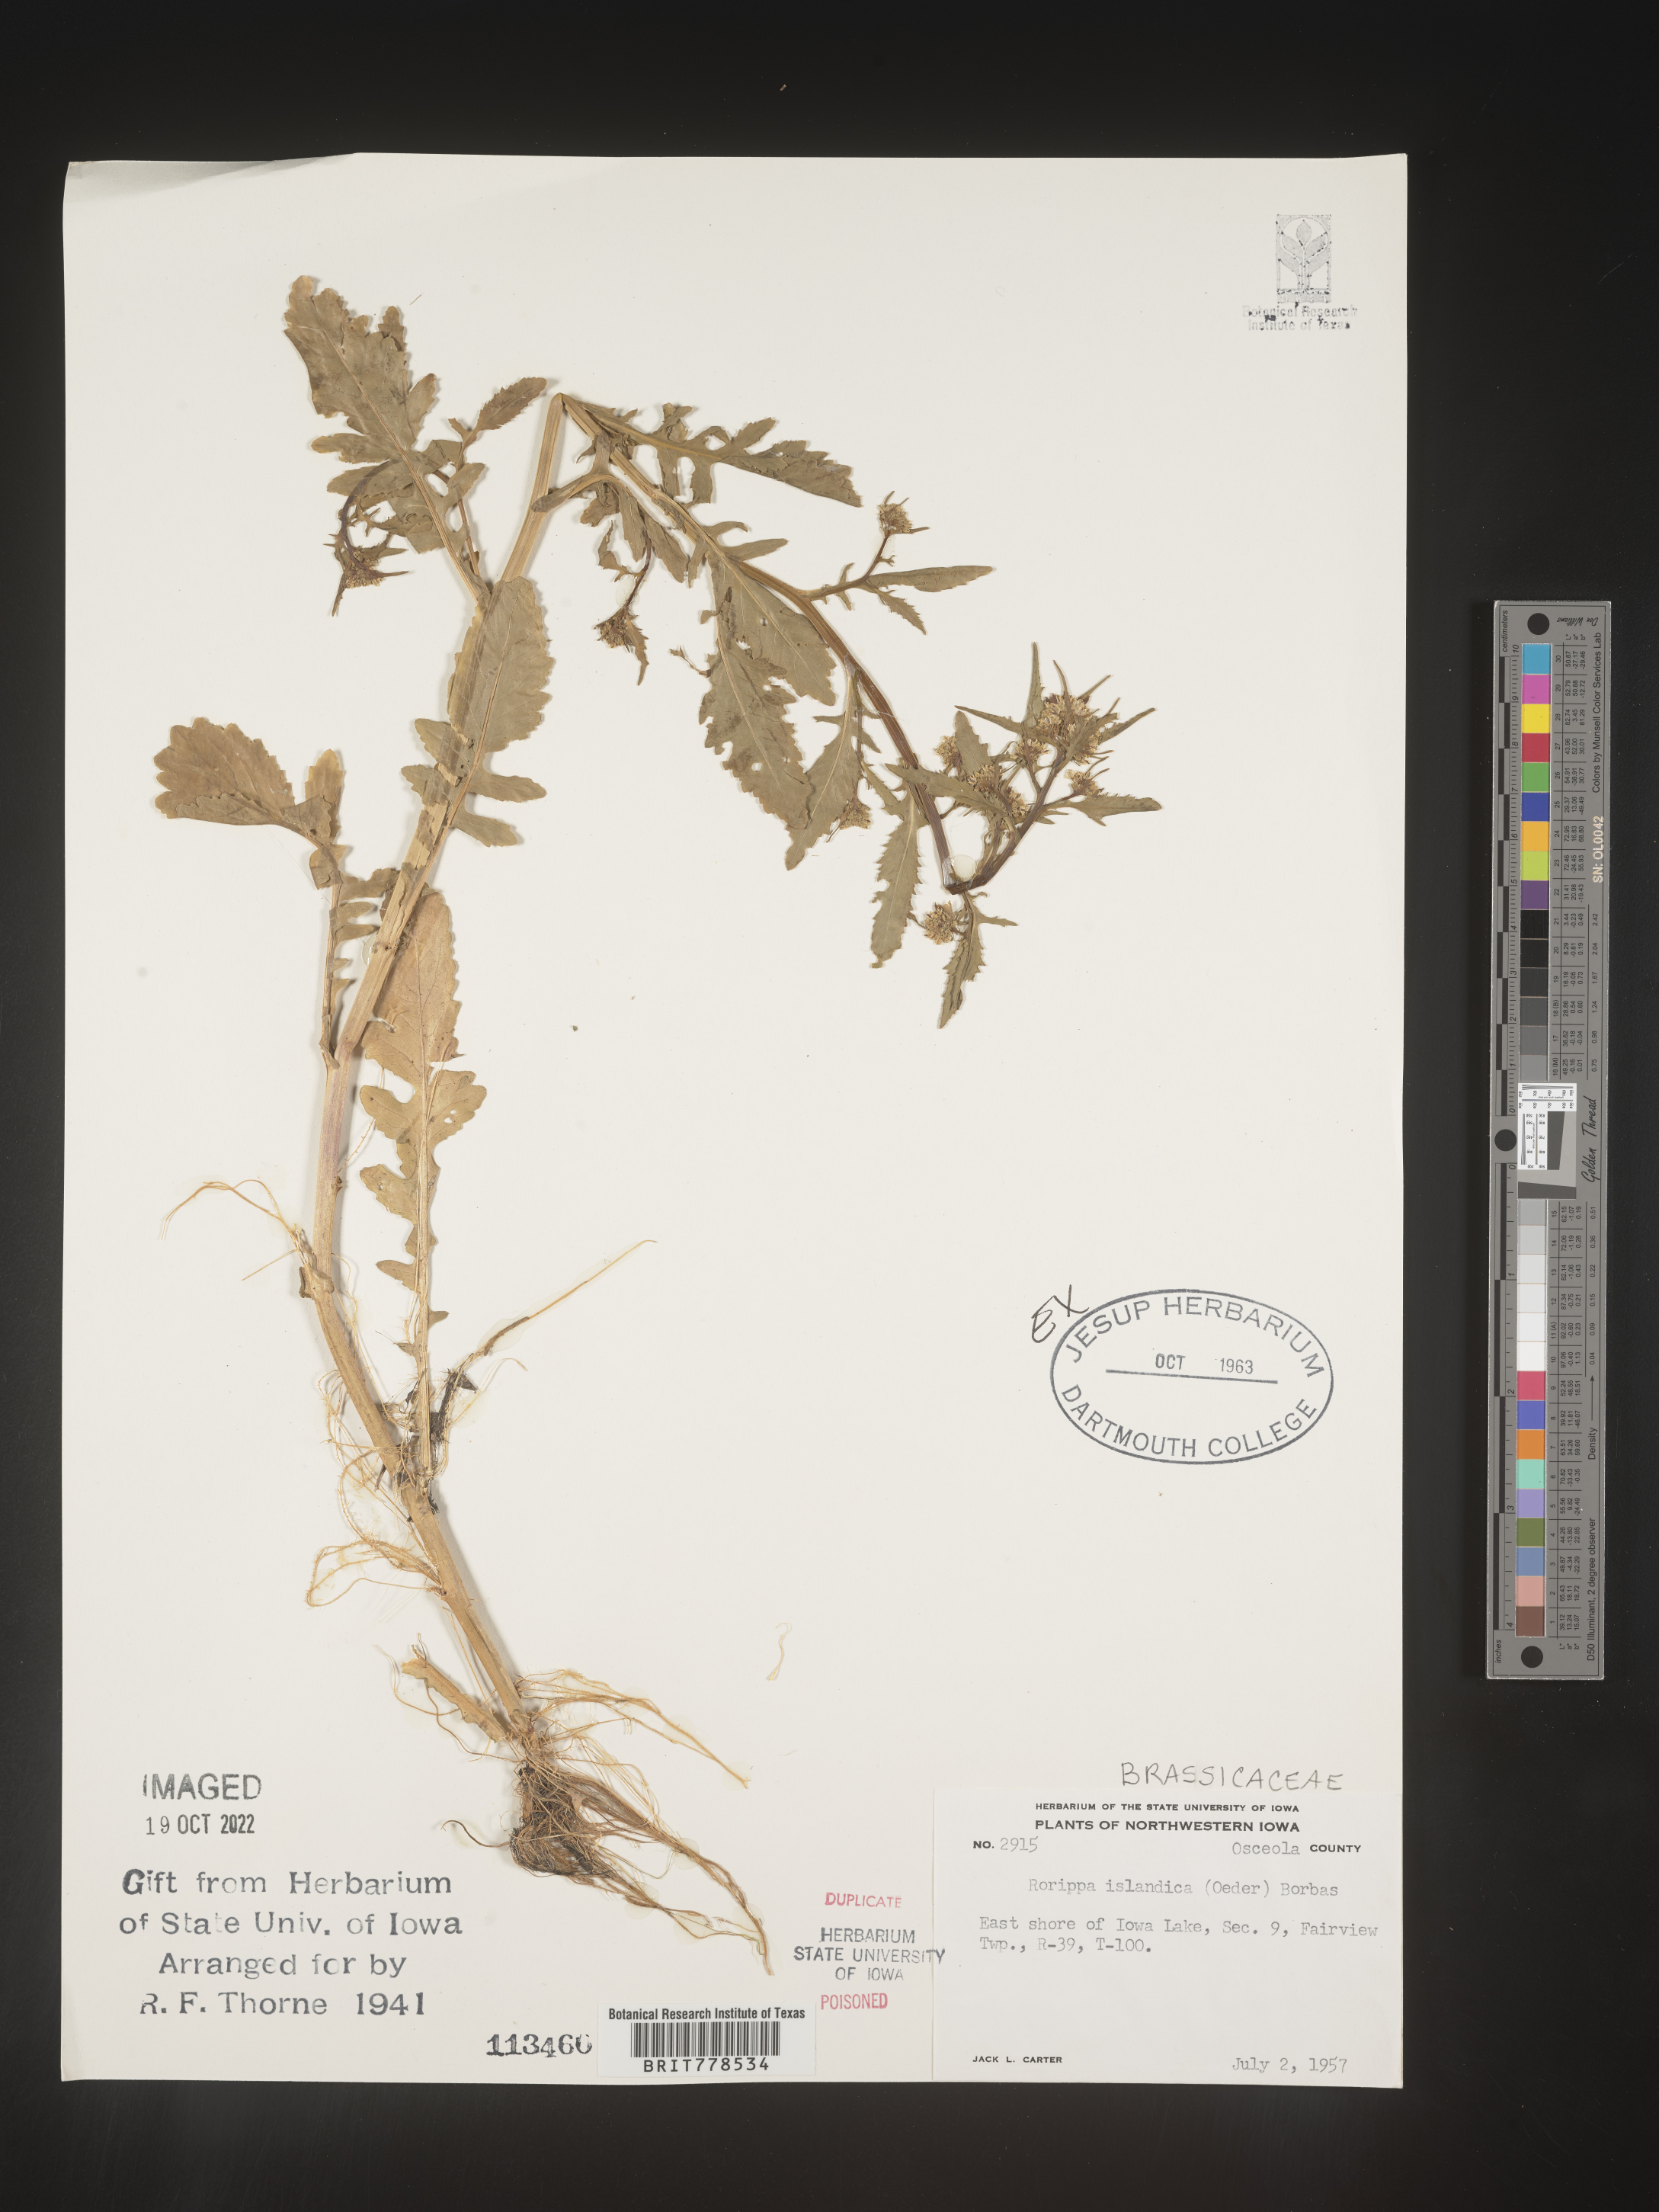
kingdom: Plantae
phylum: Tracheophyta
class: Magnoliopsida
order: Brassicales
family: Brassicaceae
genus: Rorippa
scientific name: Rorippa
